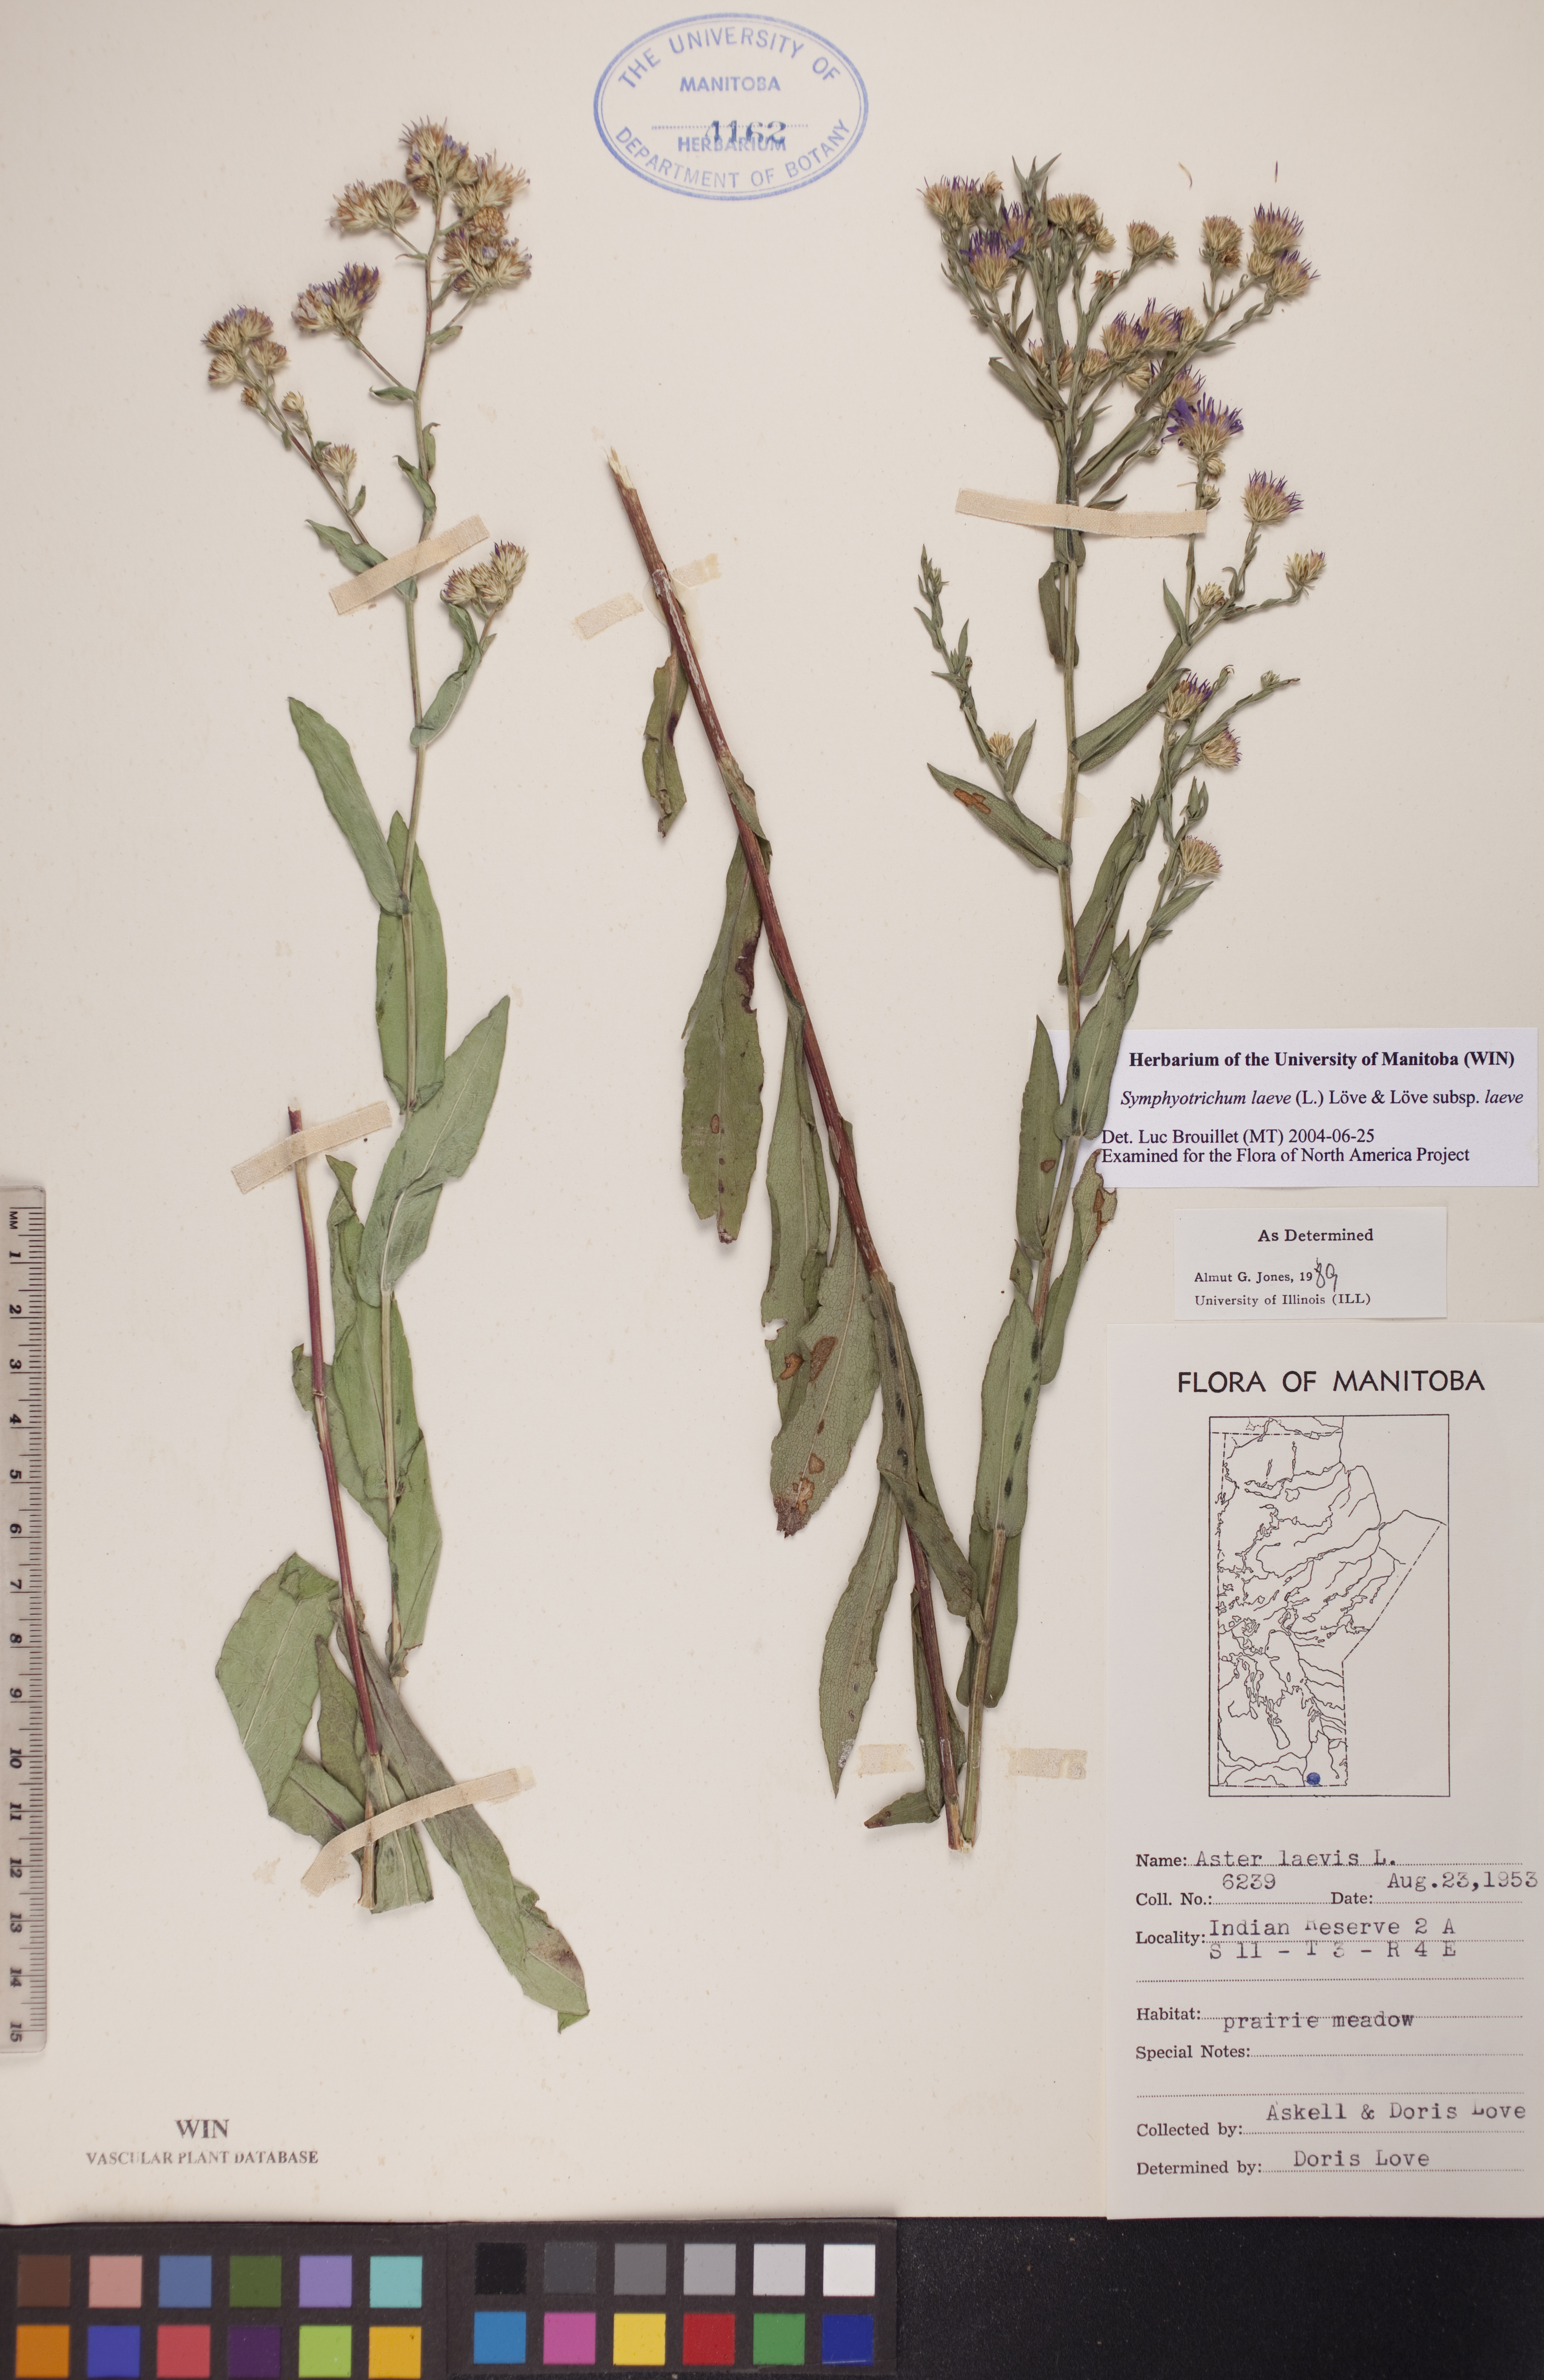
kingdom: Plantae
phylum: Tracheophyta
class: Magnoliopsida
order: Asterales
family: Asteraceae
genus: Symphyotrichum
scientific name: Symphyotrichum laeve
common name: Glaucous aster
